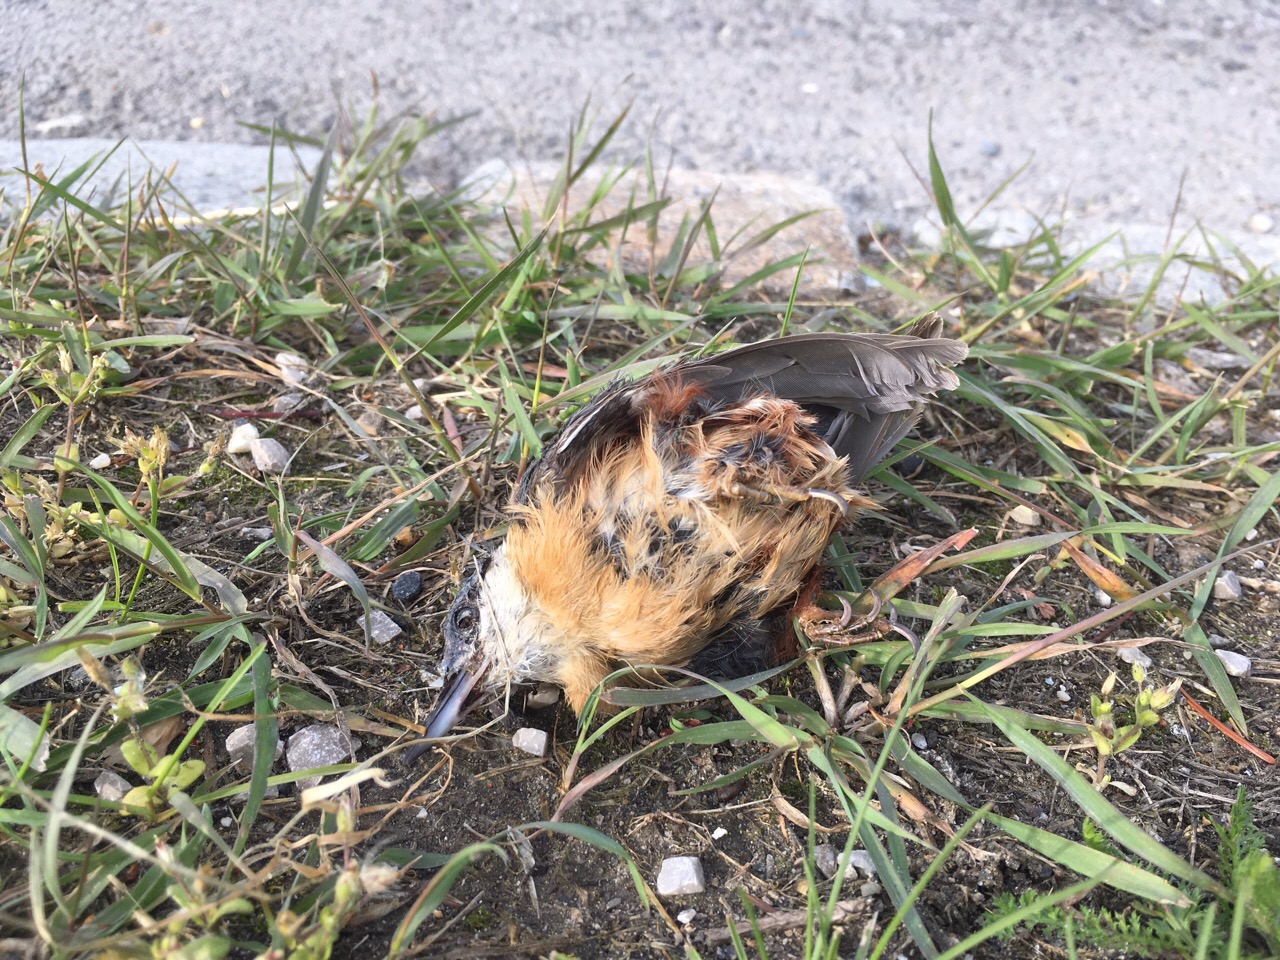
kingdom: Animalia
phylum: Chordata
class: Aves
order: Passeriformes
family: Sittidae
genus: Sitta
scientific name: Sitta europaea
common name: Eurasian nuthatch
